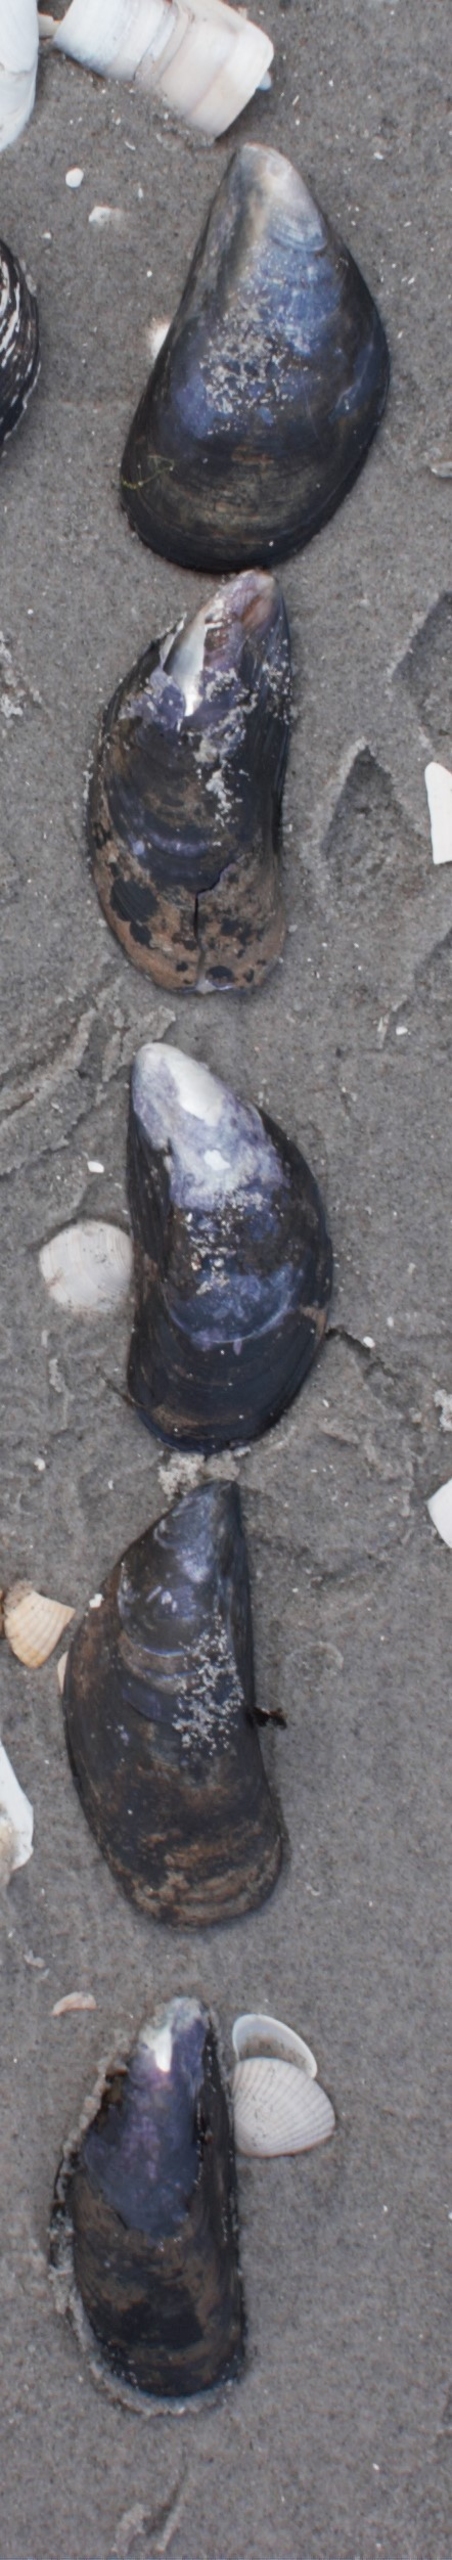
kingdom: Animalia
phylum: Mollusca
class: Bivalvia
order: Mytilida
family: Mytilidae
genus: Mytilus
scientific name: Mytilus edulis
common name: Blåmusling
